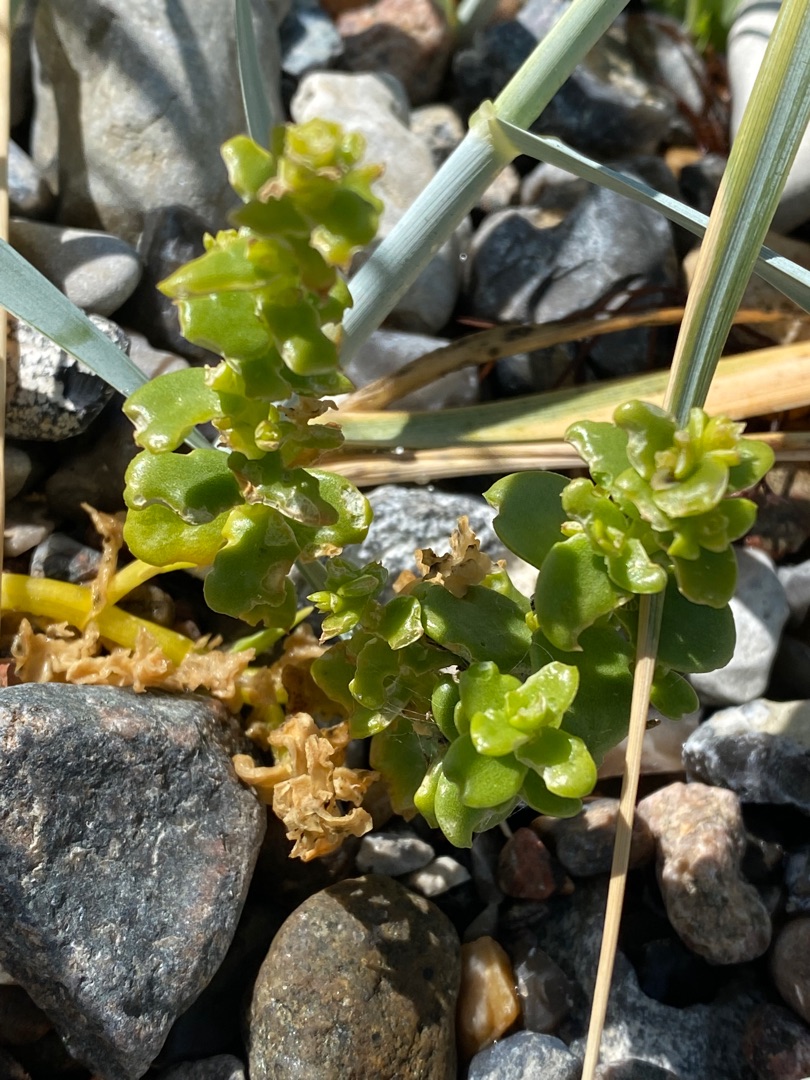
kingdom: Plantae
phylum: Tracheophyta
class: Magnoliopsida
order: Caryophyllales
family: Caryophyllaceae
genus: Honckenya
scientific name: Honckenya peploides
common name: Strandarve
